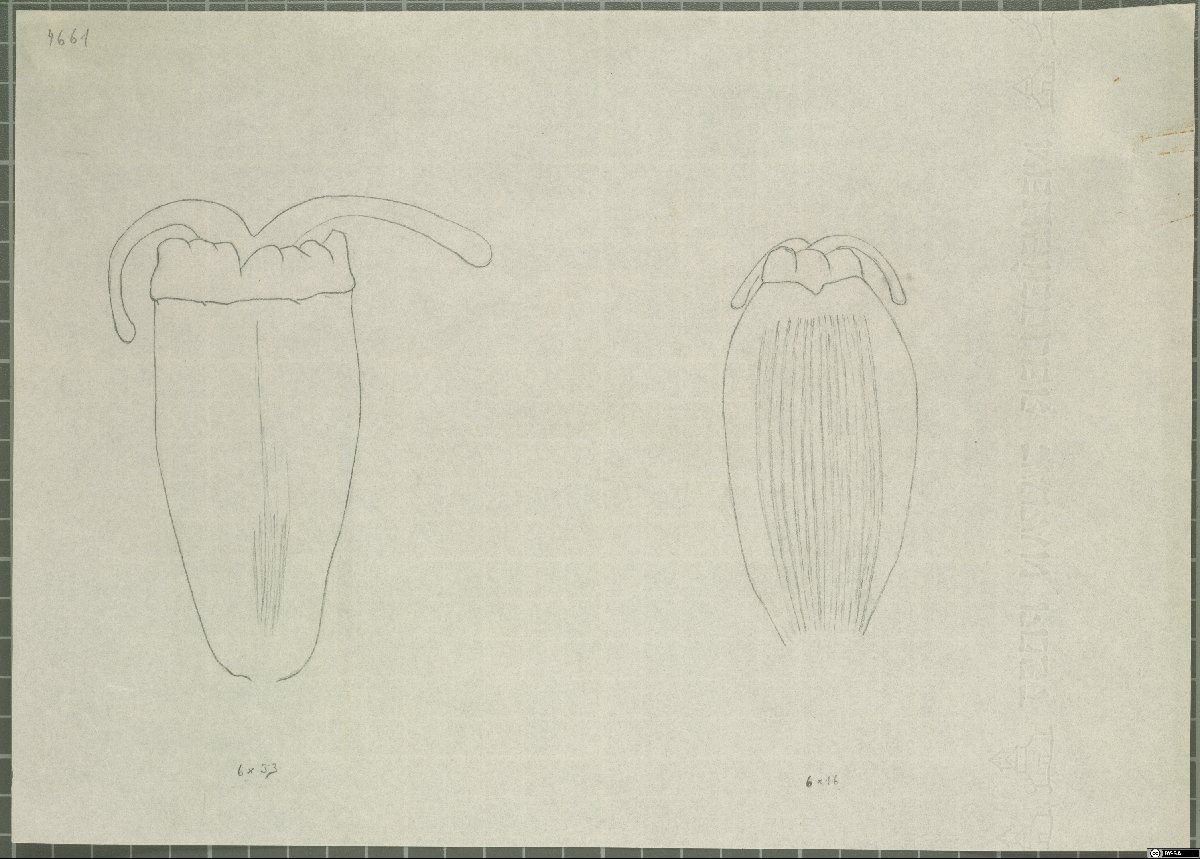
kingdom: Plantae
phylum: Tracheophyta
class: Magnoliopsida
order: Apiales
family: Apiaceae
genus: Ferula
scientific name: Ferula flabelliloba
